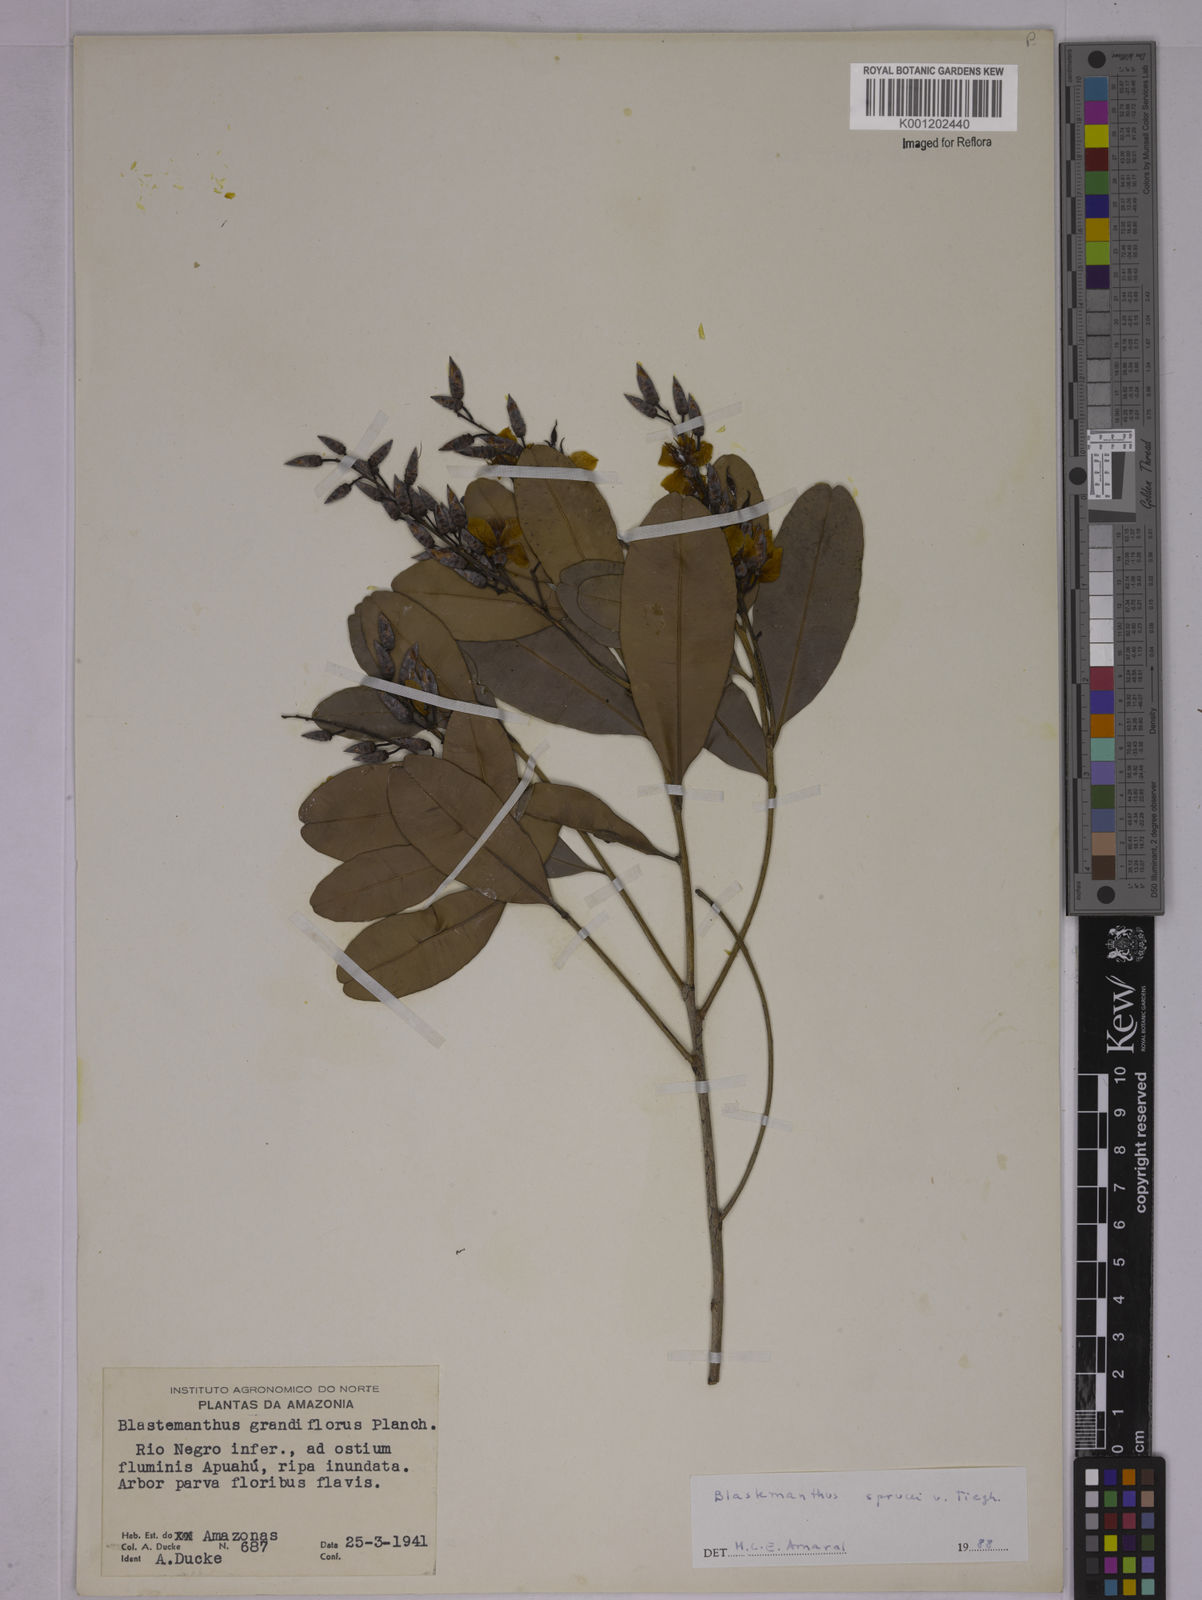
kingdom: Plantae
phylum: Tracheophyta
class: Magnoliopsida
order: Malpighiales
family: Ochnaceae
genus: Blastemanthus
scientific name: Blastemanthus gemmiflorus
